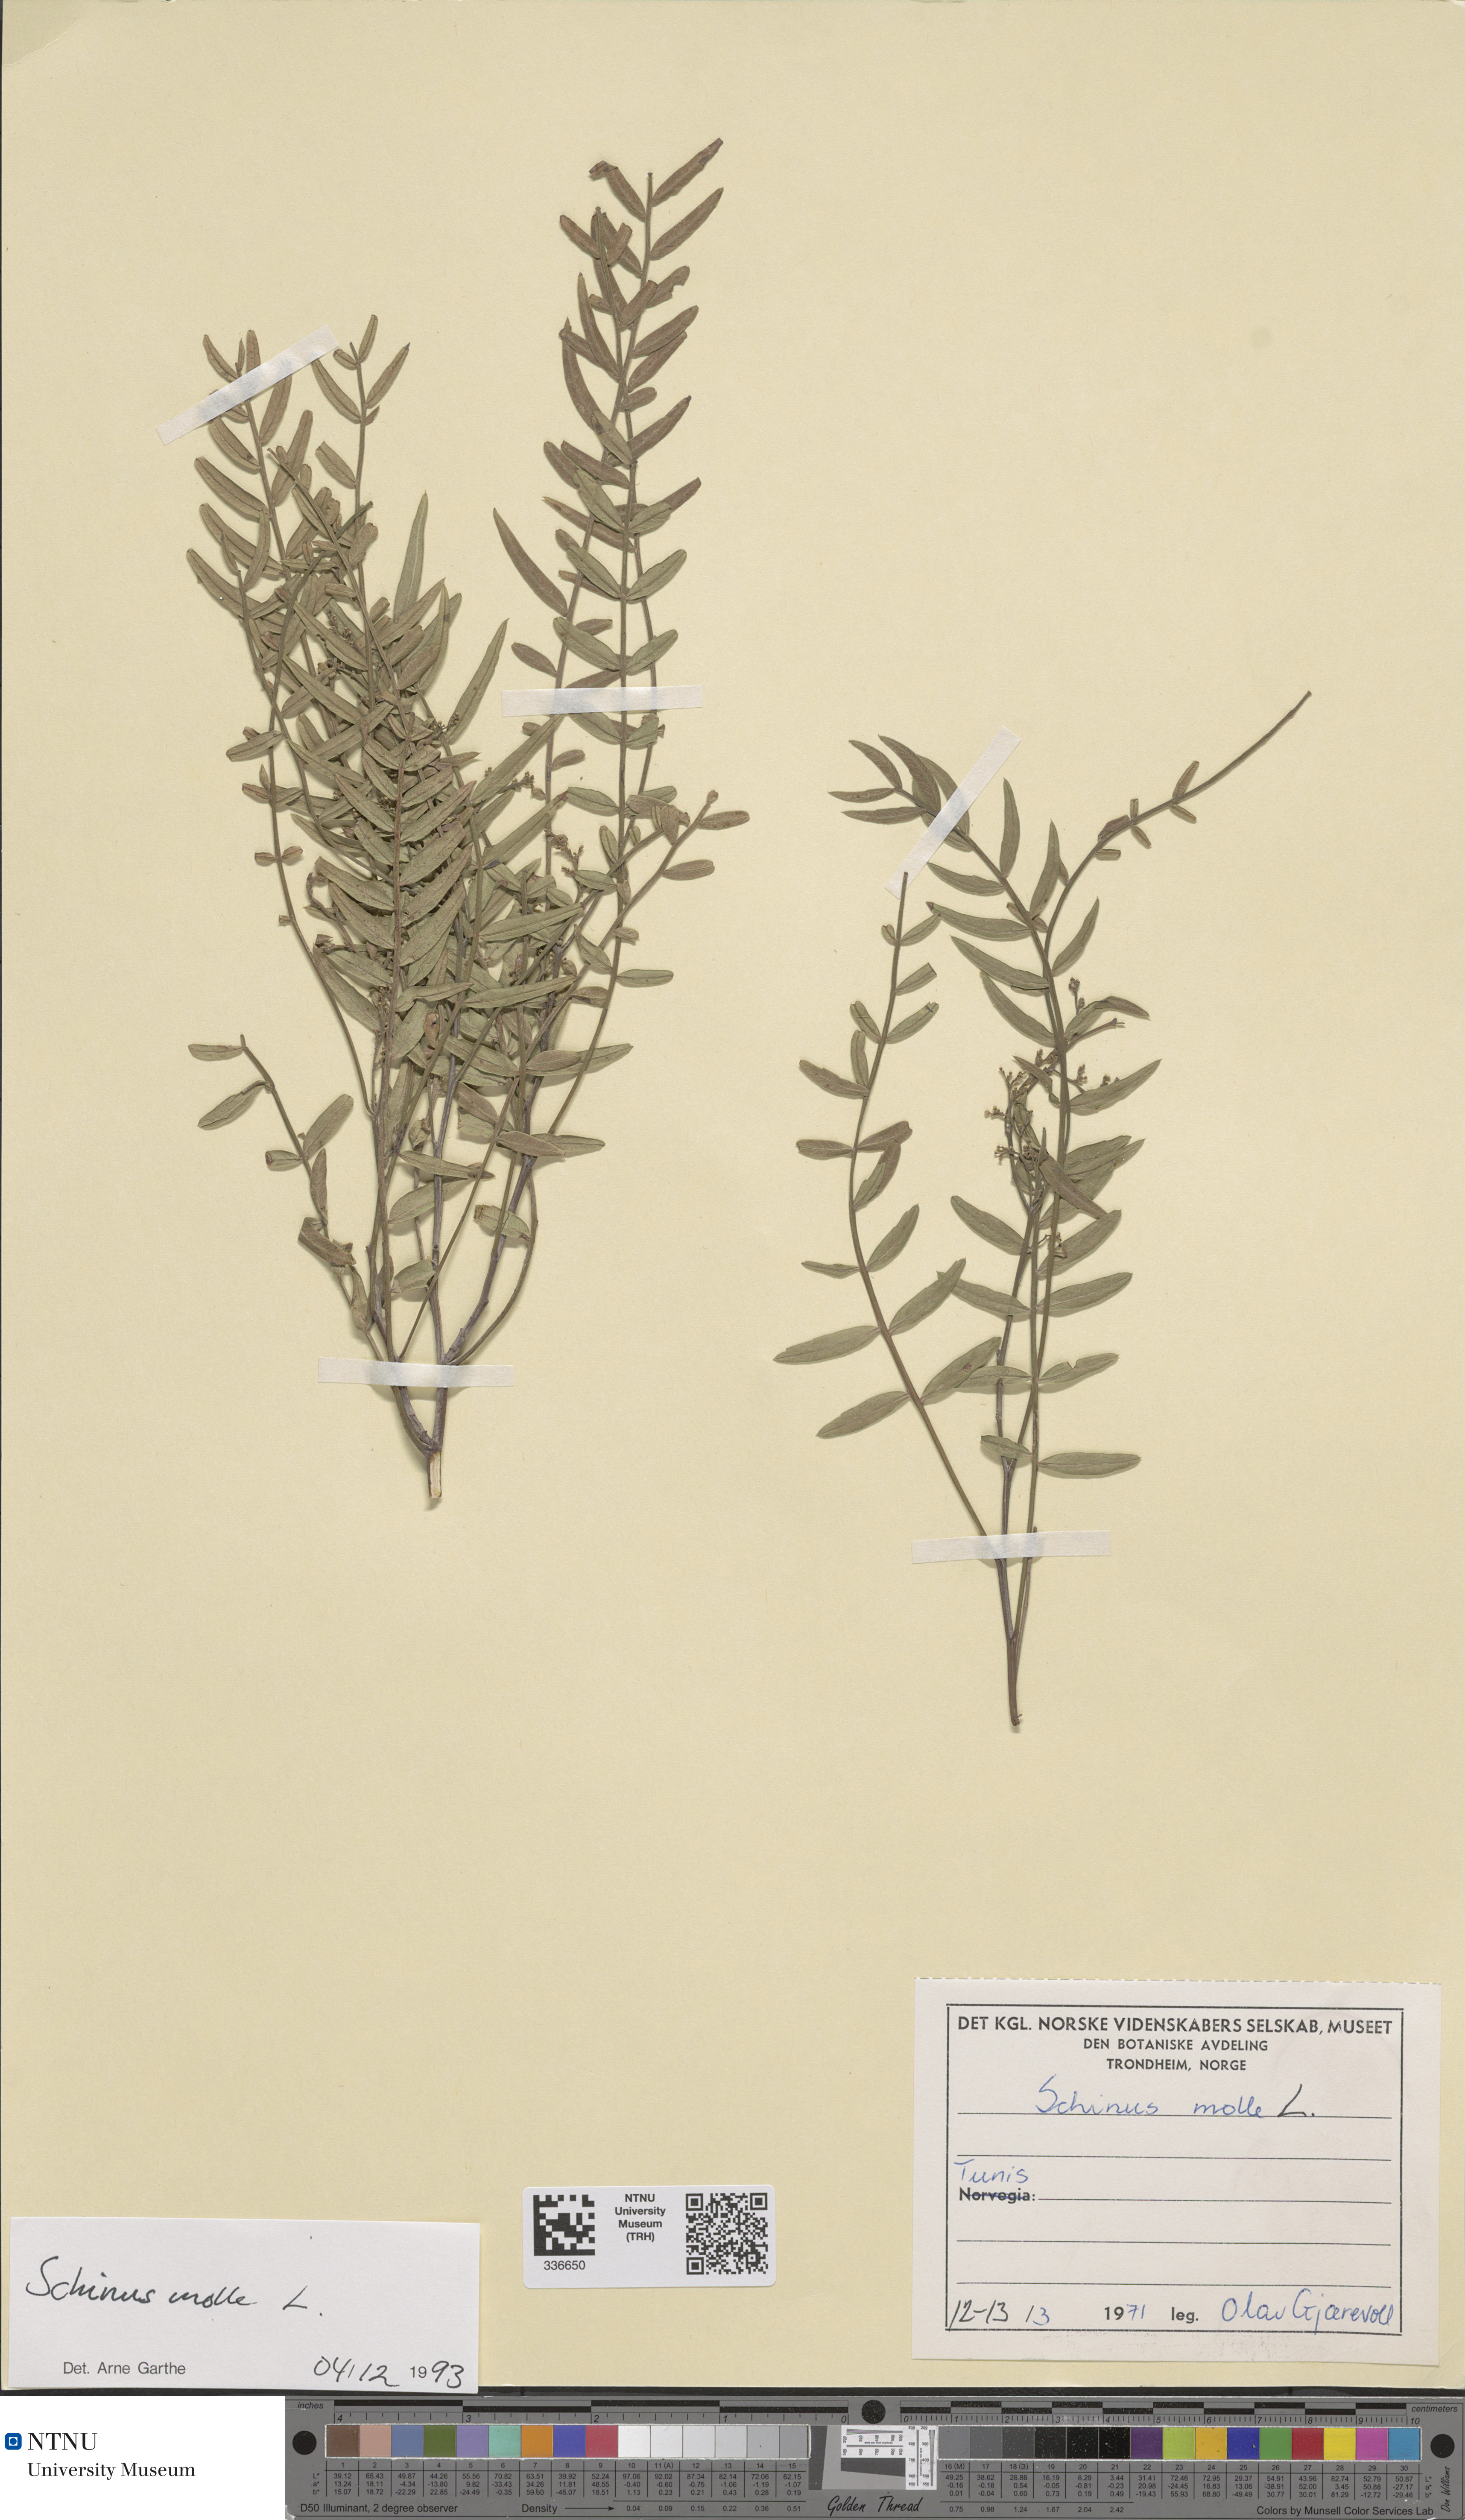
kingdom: Plantae
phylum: Tracheophyta
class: Magnoliopsida
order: Sapindales
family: Anacardiaceae
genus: Schinus
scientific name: Schinus molle
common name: Peruvian peppertree
